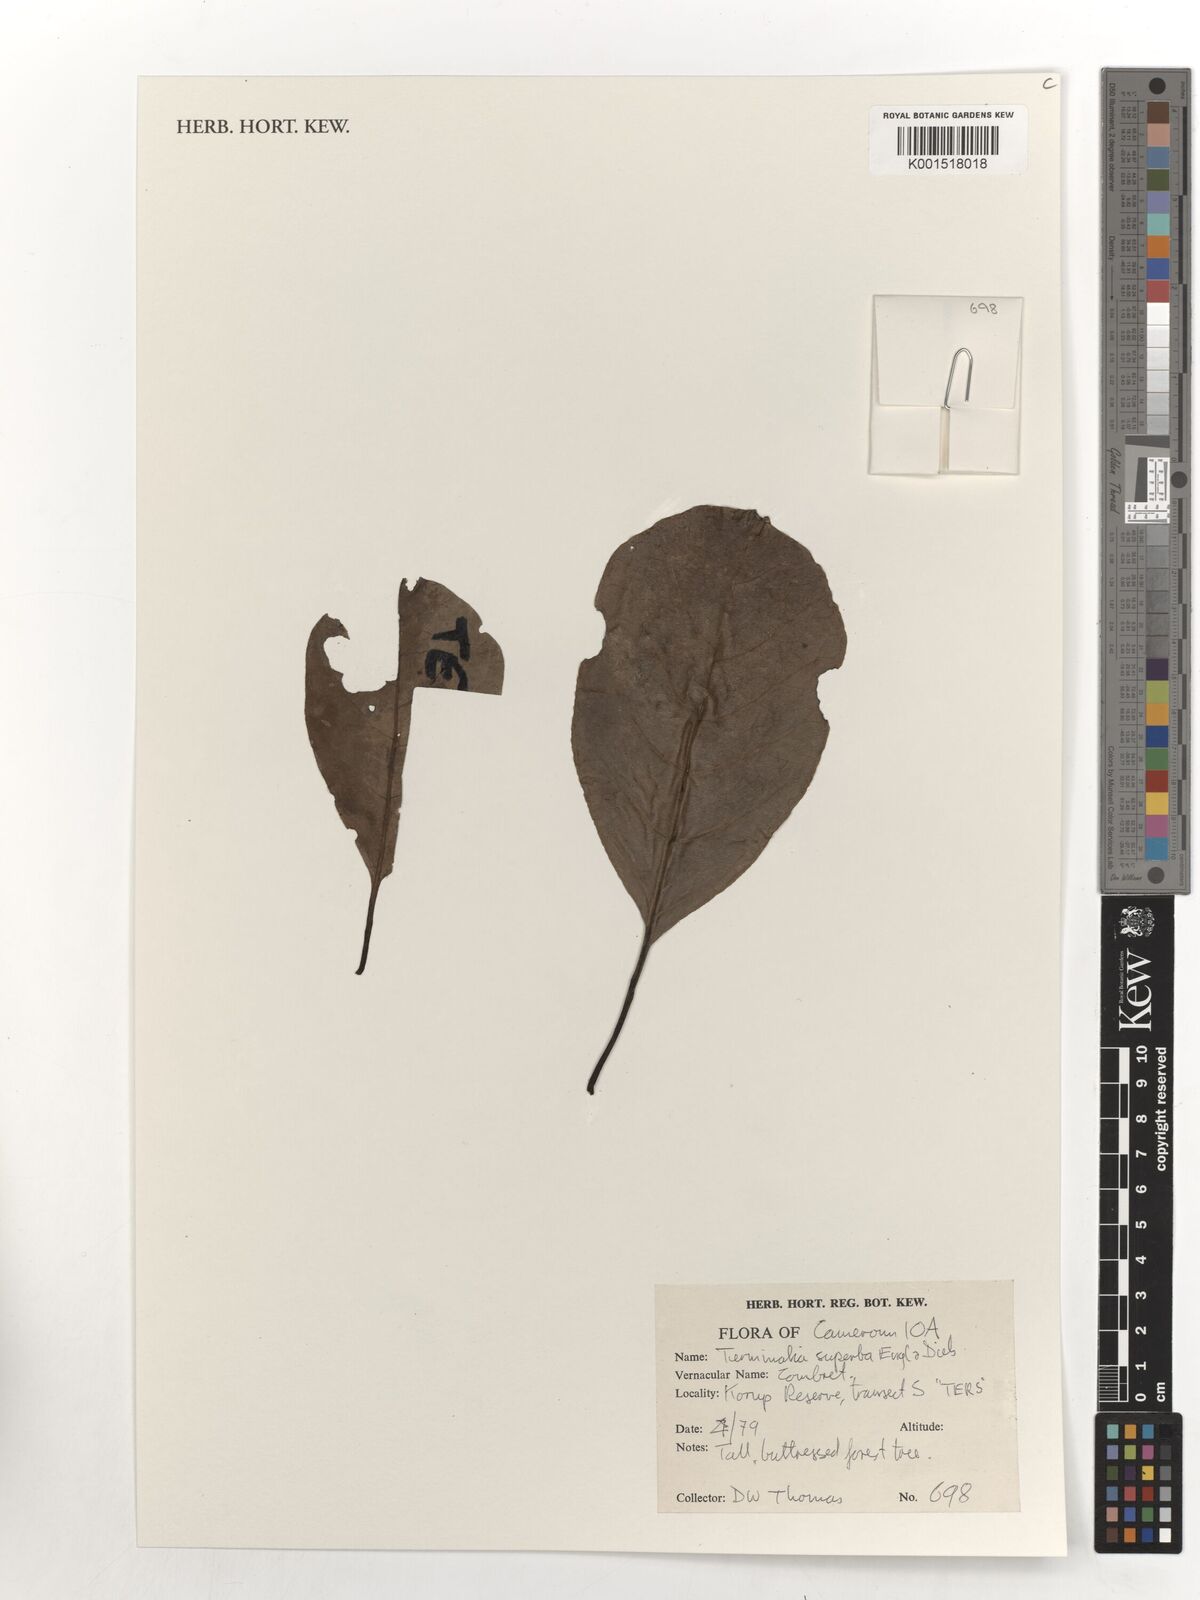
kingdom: Plantae
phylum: Tracheophyta
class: Magnoliopsida
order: Myrtales
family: Combretaceae
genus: Terminalia
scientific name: Terminalia superba
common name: White afara
